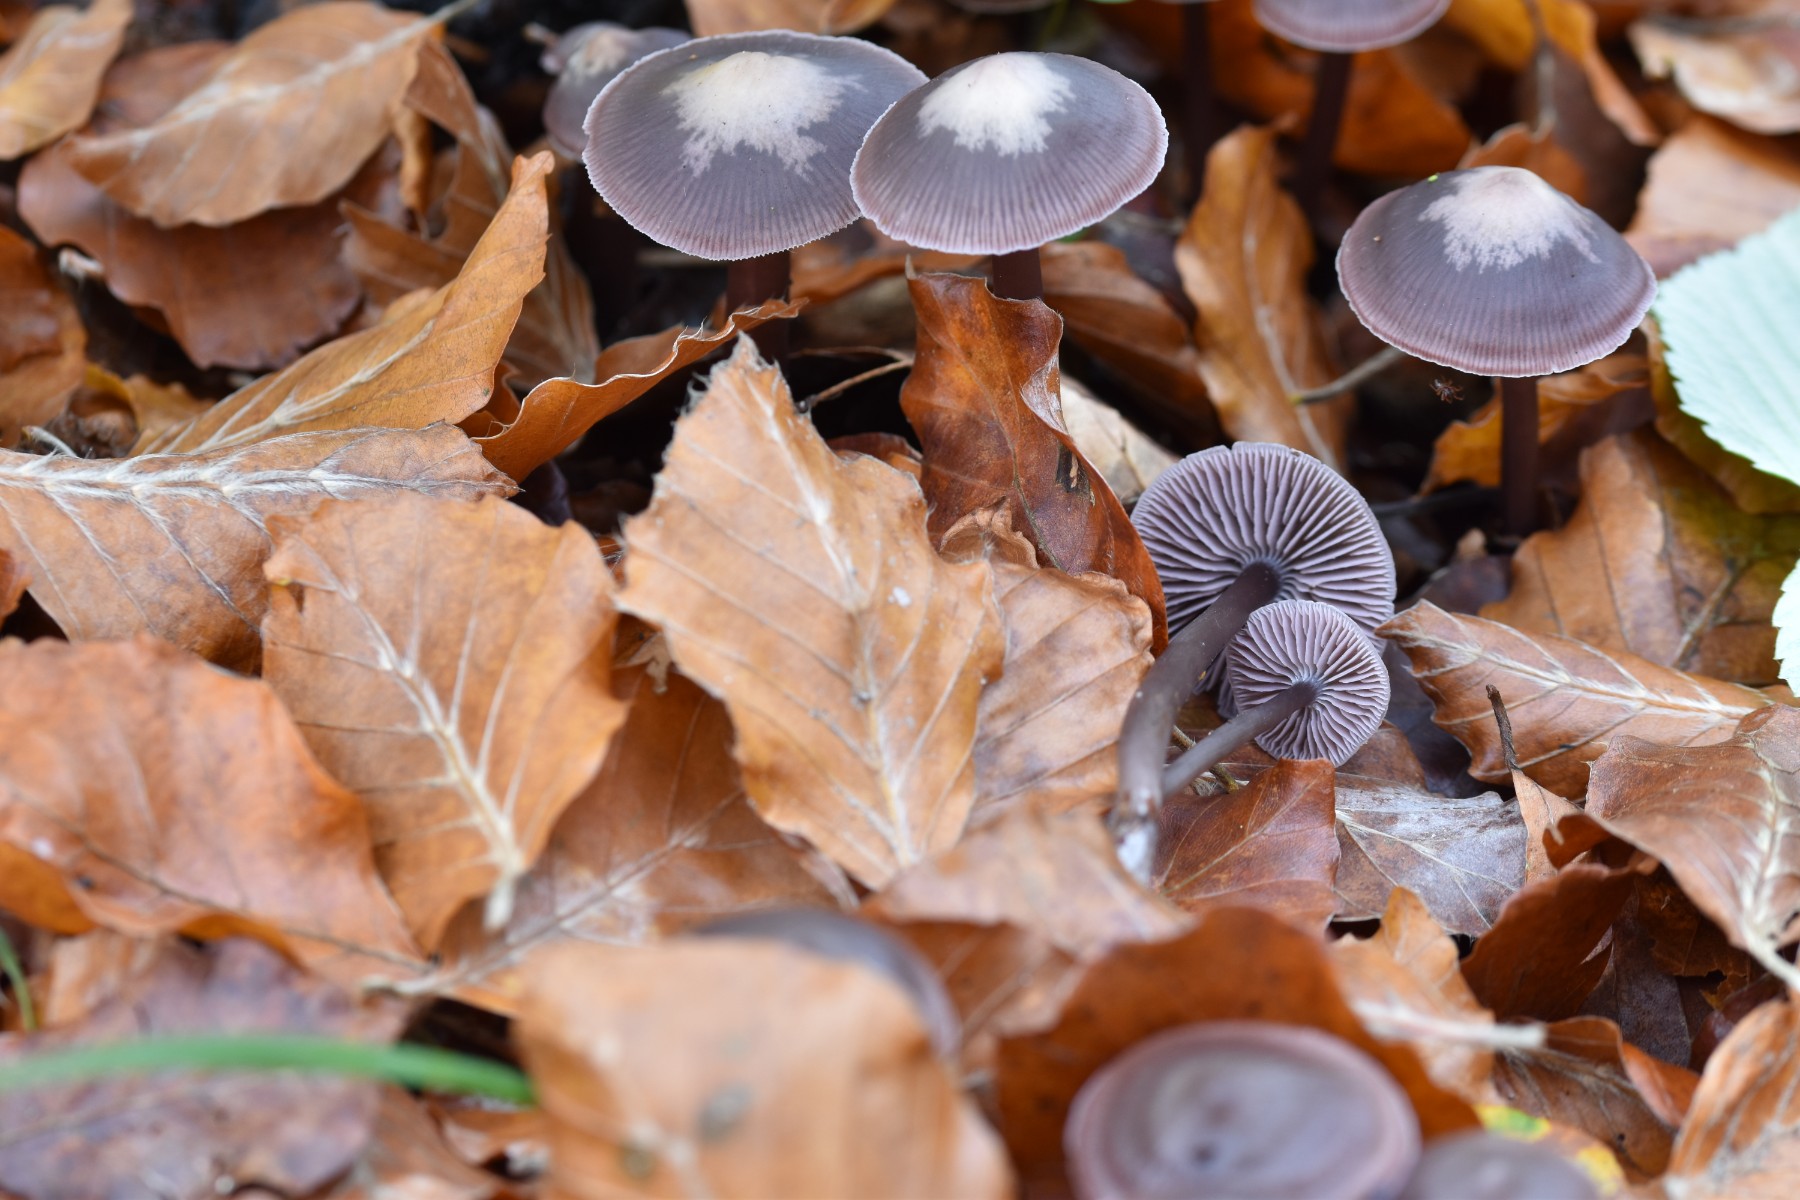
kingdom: Fungi
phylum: Basidiomycota
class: Agaricomycetes
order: Agaricales
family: Mycenaceae
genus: Prunulus
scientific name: Prunulus diosmus
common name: tobaks-huesvamp
